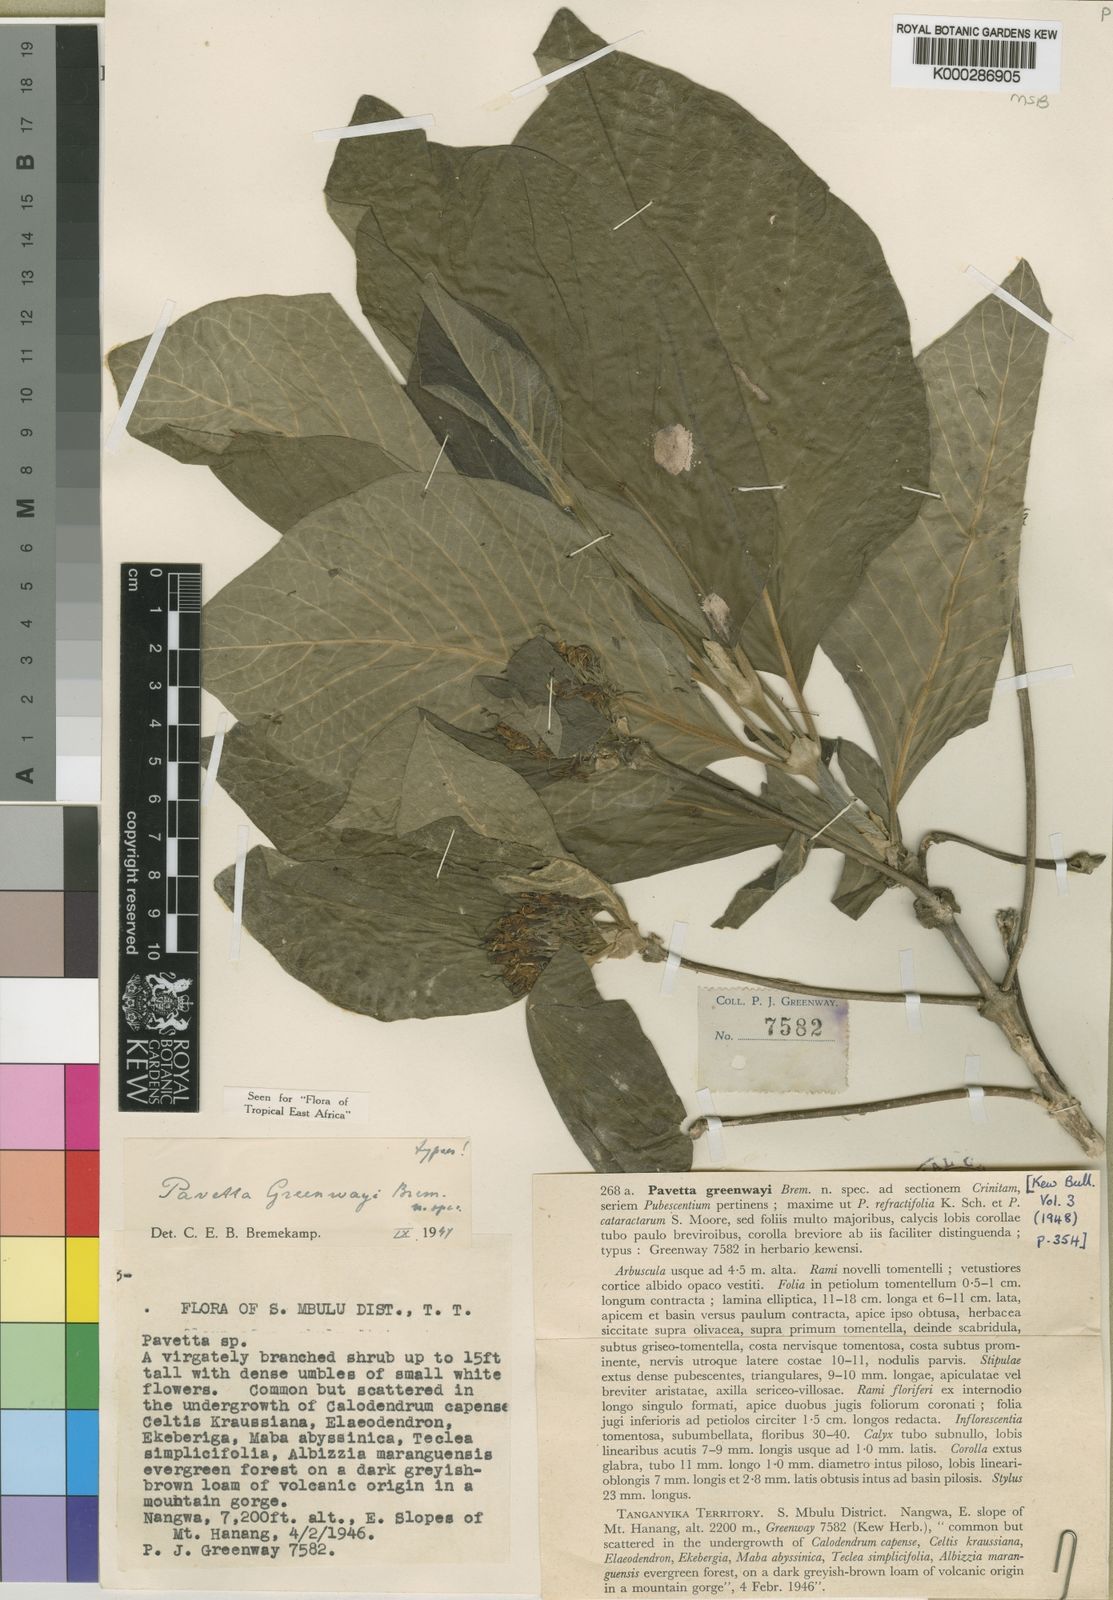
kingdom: Plantae
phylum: Tracheophyta
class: Magnoliopsida
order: Gentianales
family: Rubiaceae
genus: Pavetta
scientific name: Pavetta greenwayi
